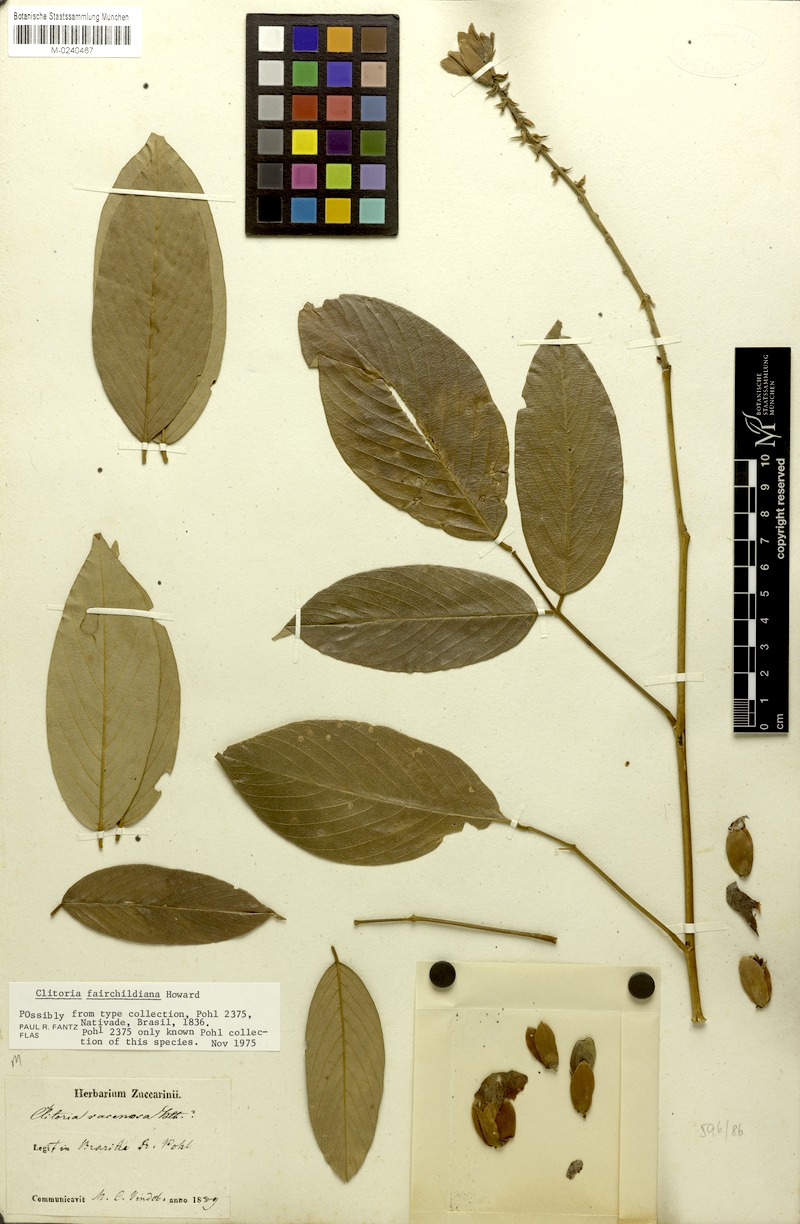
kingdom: Plantae
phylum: Tracheophyta
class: Magnoliopsida
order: Fabales
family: Fabaceae
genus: Clitoria
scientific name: Clitoria fairchildiana
